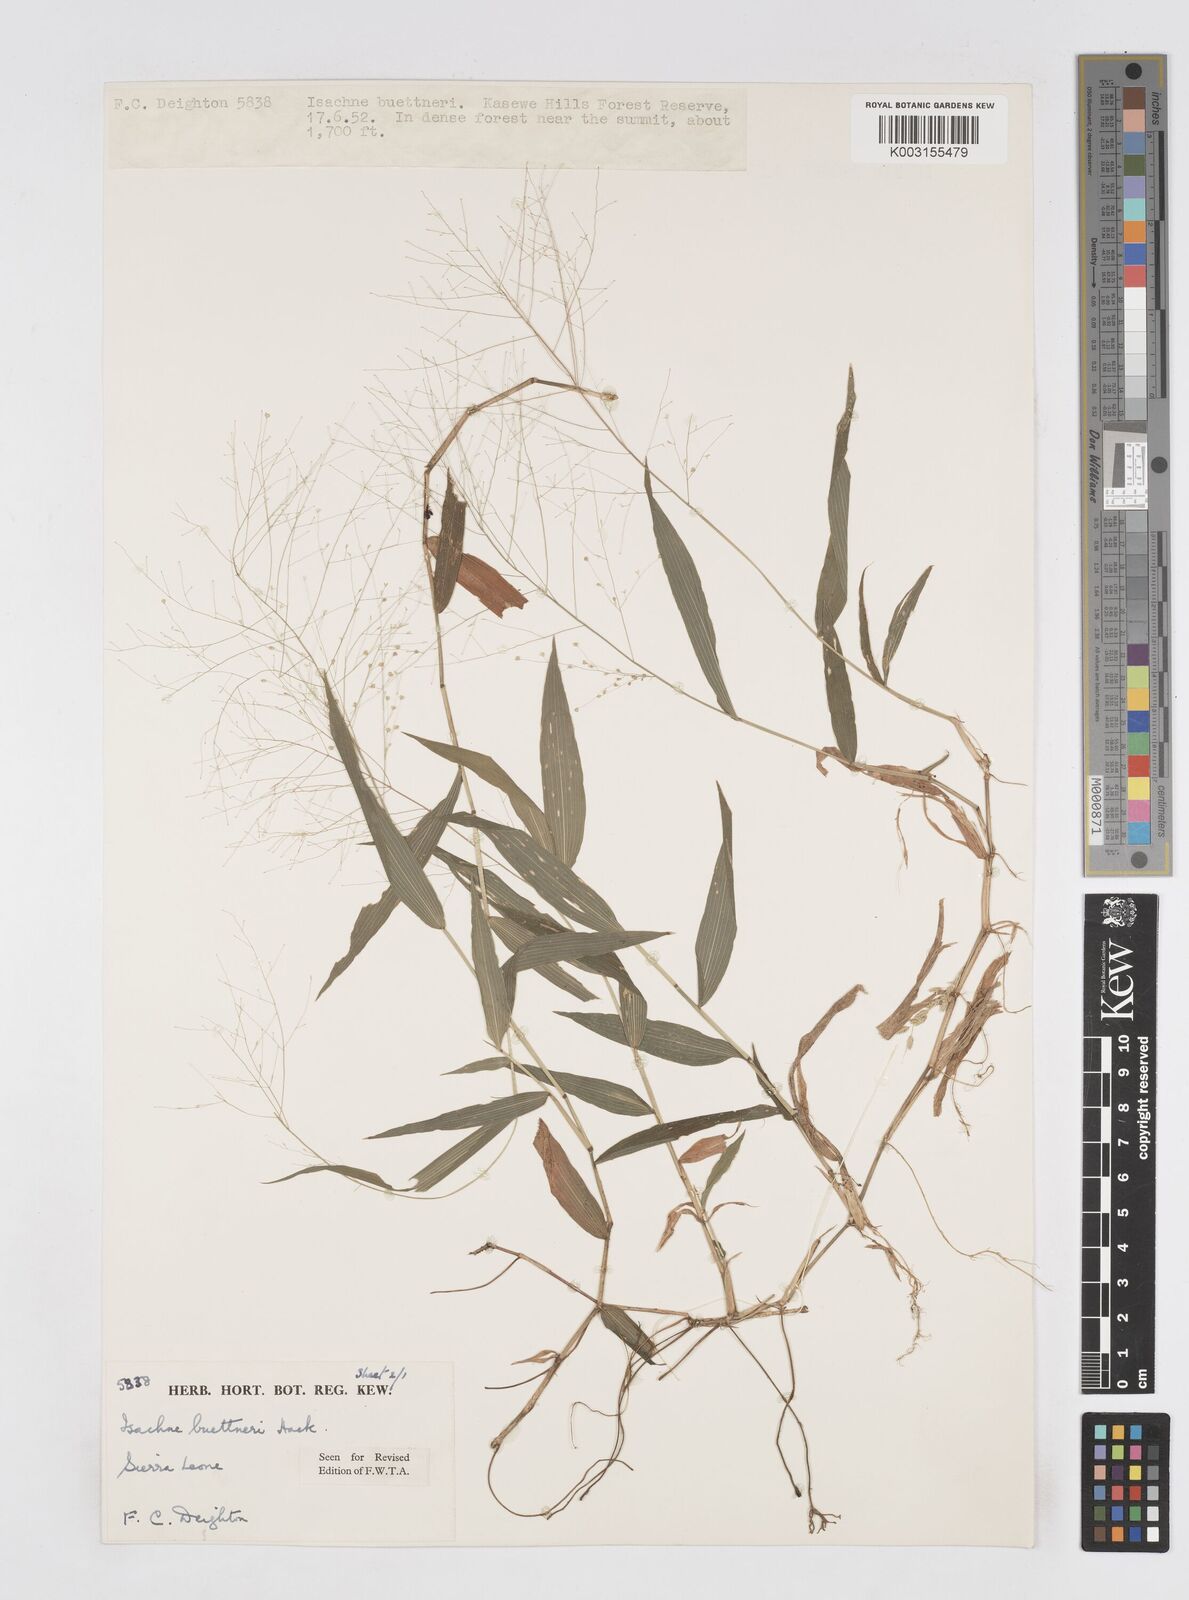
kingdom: Plantae
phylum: Tracheophyta
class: Liliopsida
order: Poales
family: Poaceae
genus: Isachne
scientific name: Isachne albens
